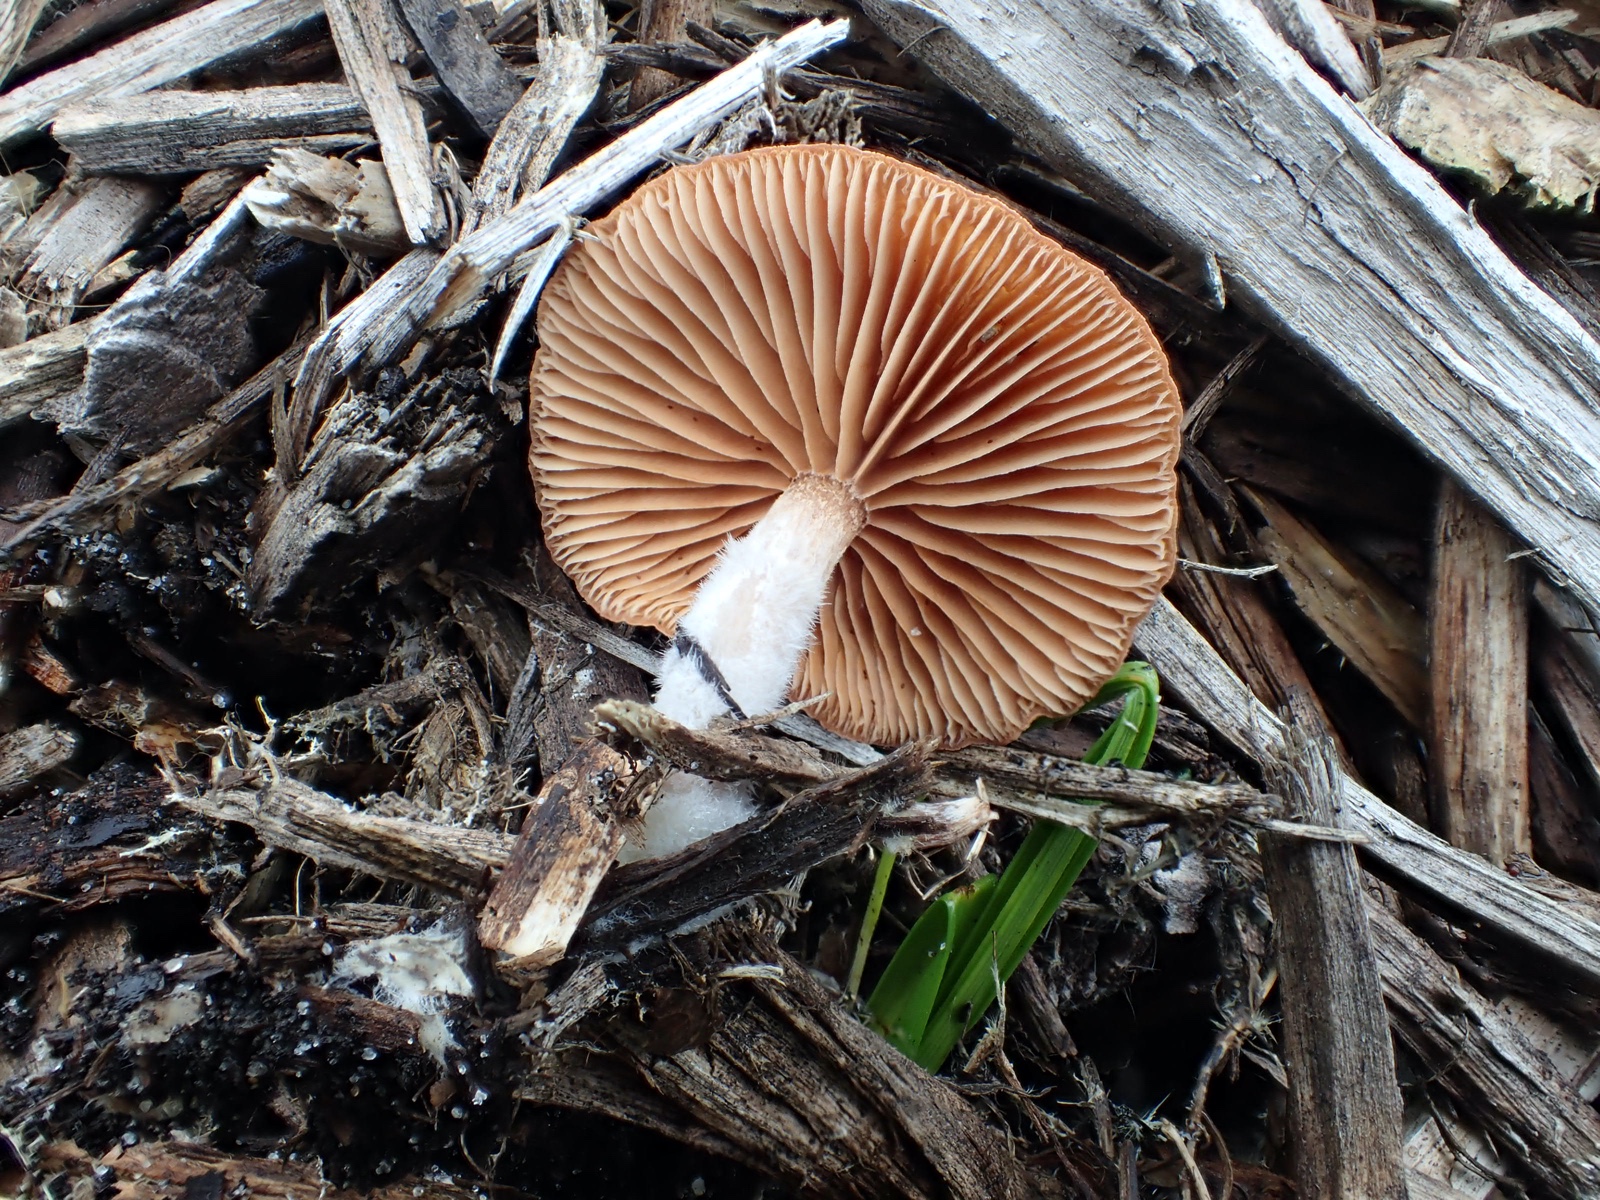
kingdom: Fungi
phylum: Basidiomycota
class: Agaricomycetes
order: Agaricales
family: Tubariaceae
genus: Tubaria
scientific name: Tubaria furfuracea
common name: kliddet fnughat
